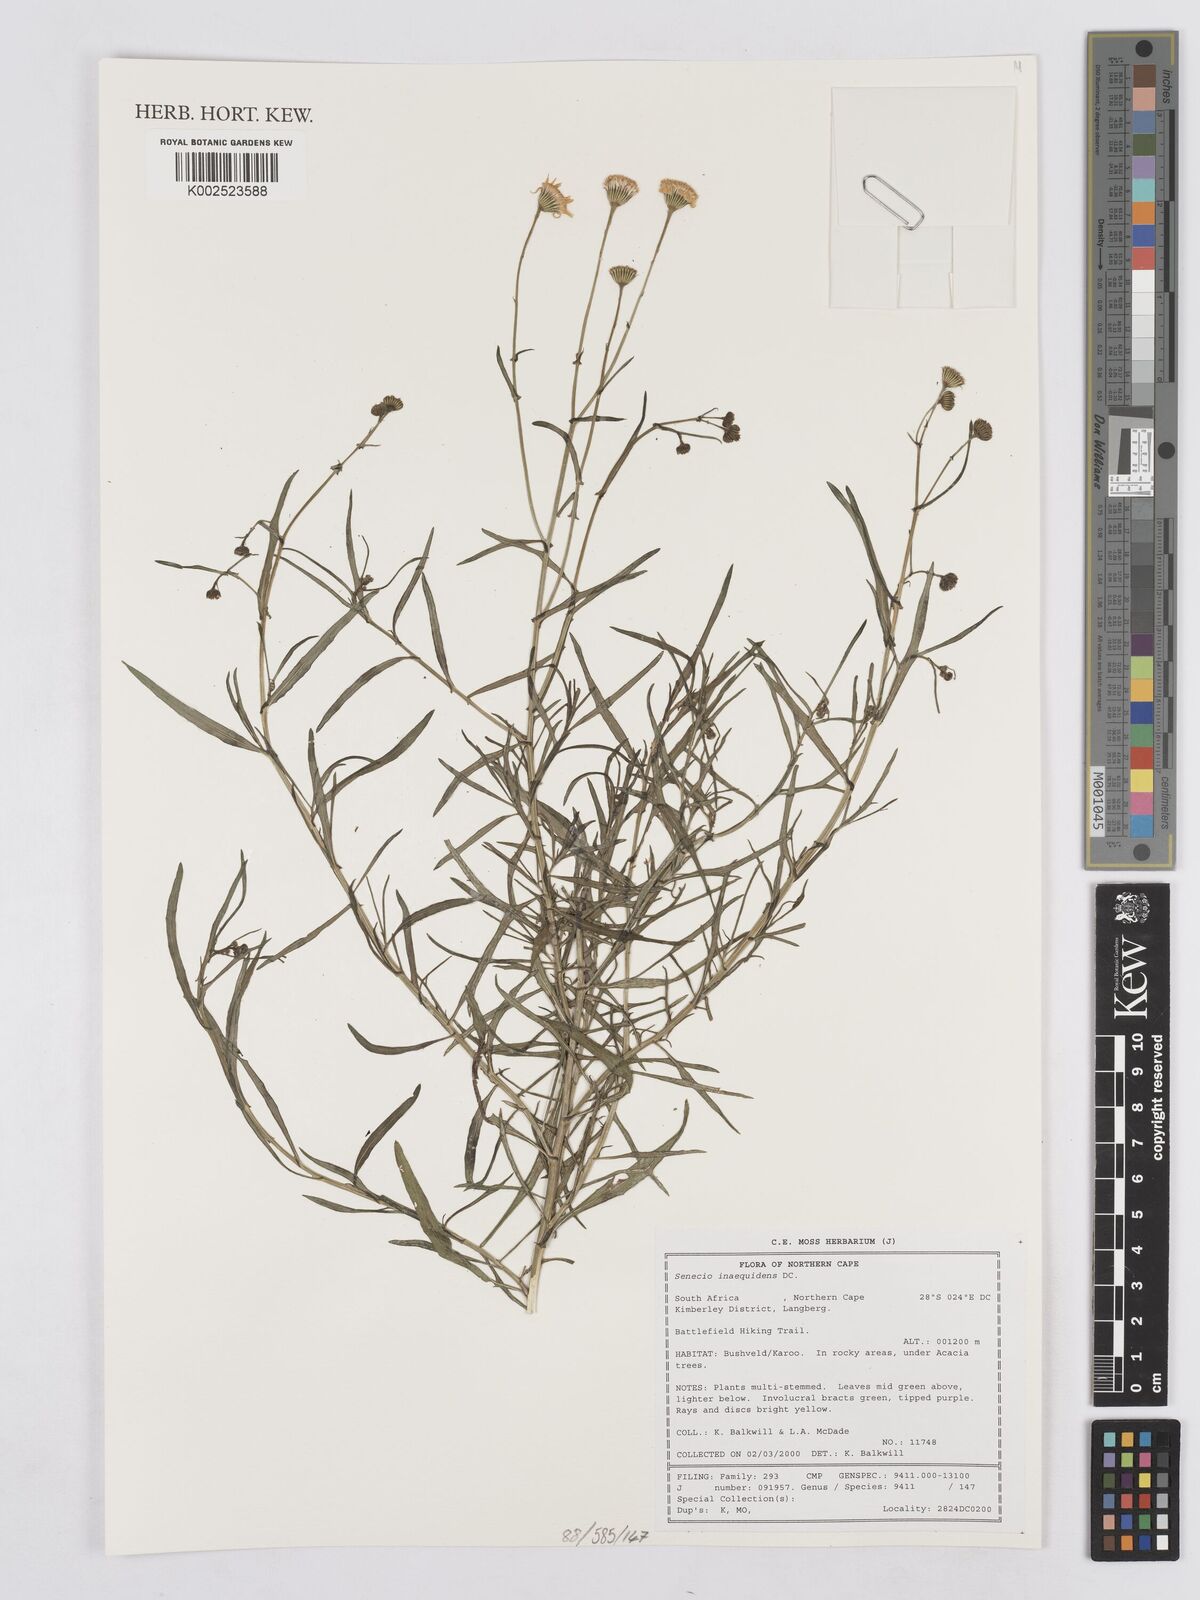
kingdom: Plantae
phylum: Tracheophyta
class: Magnoliopsida
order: Asterales
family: Asteraceae
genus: Senecio
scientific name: Senecio inaequidens
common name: Narrow-leaved ragwort
